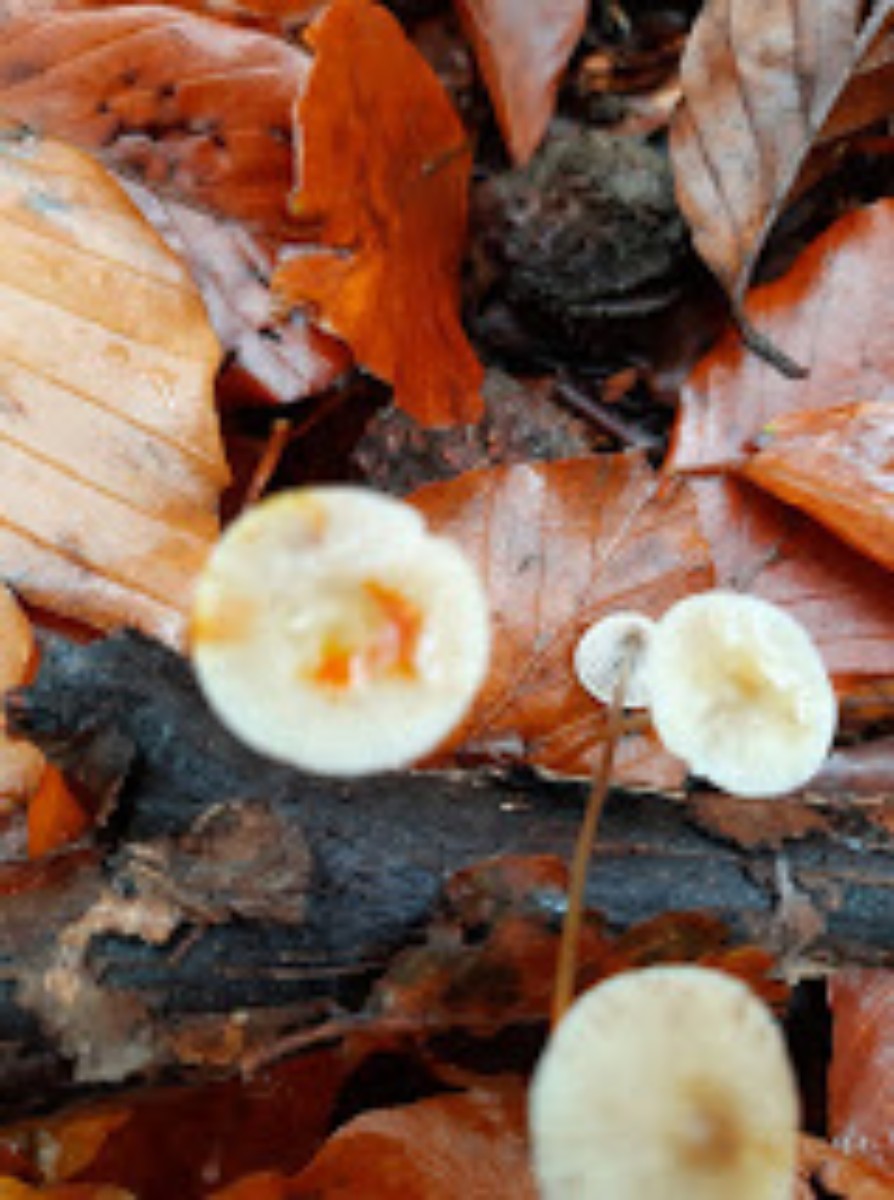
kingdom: Fungi
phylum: Basidiomycota
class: Agaricomycetes
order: Agaricales
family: Mycenaceae
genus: Mycena
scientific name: Mycena crocata
